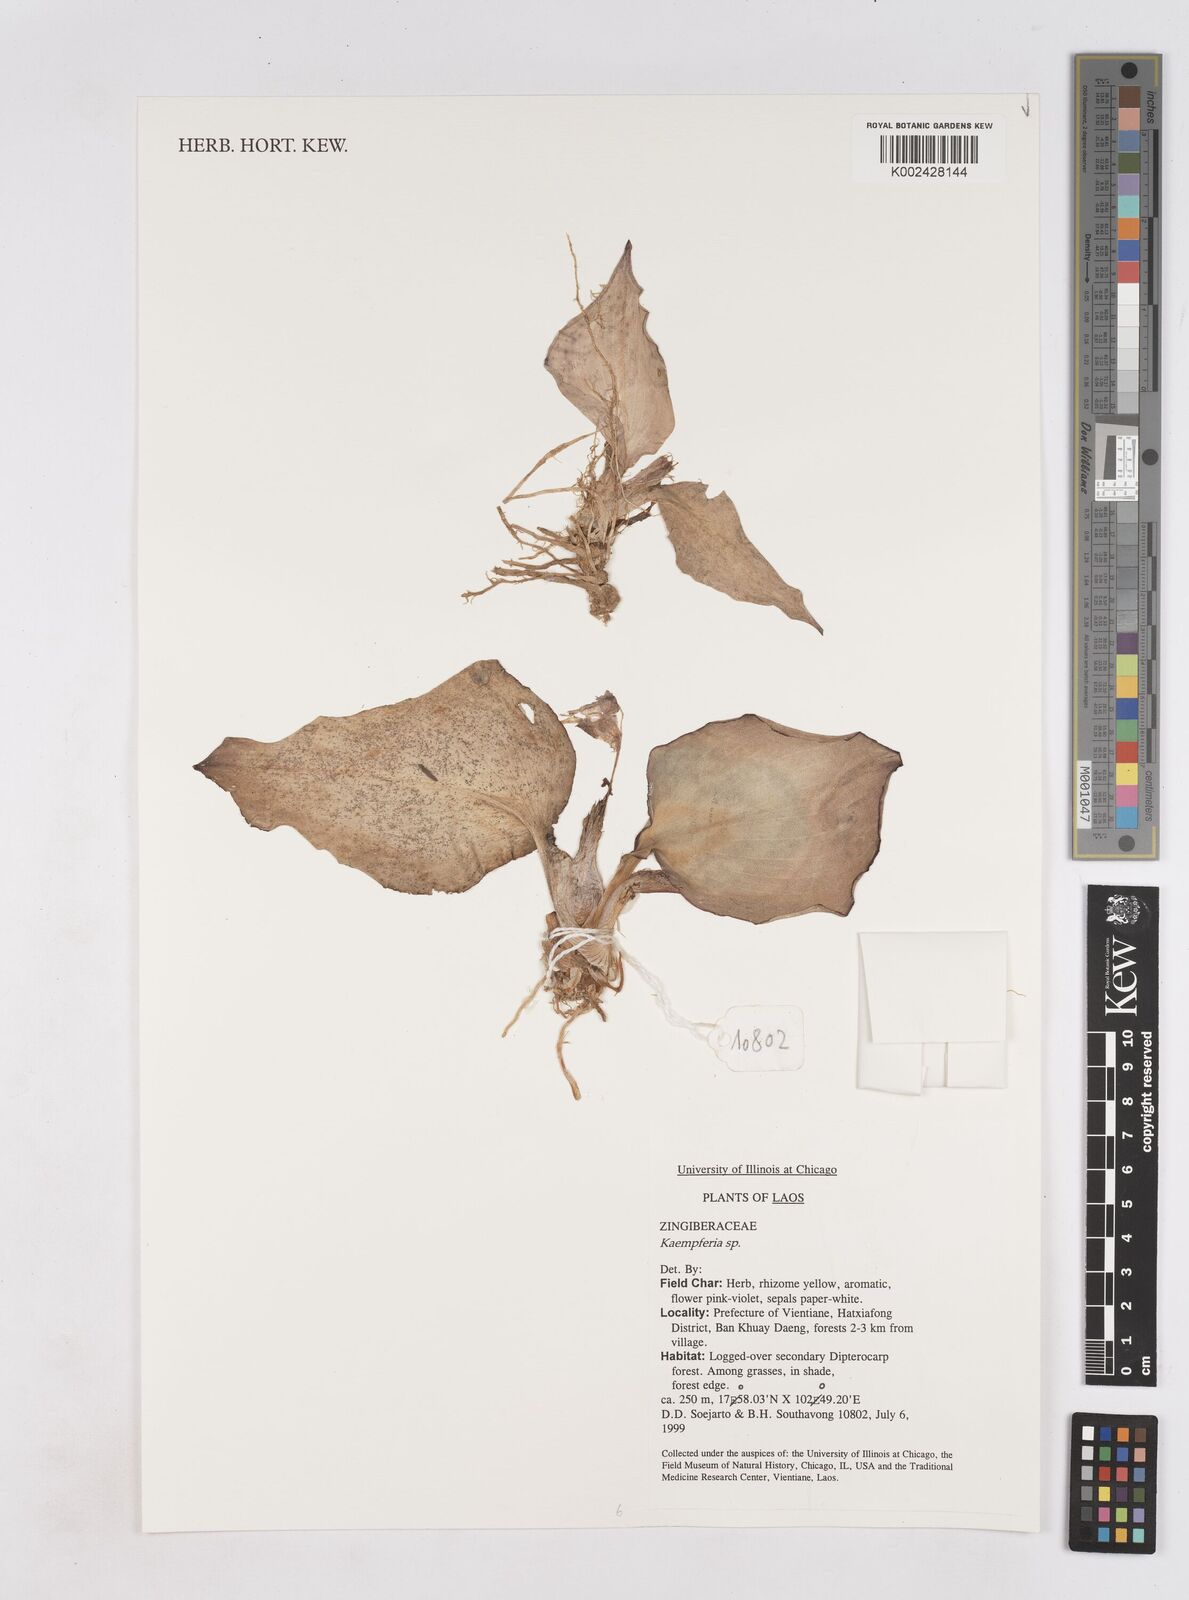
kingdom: Plantae
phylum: Tracheophyta
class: Liliopsida
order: Zingiberales
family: Zingiberaceae
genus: Kaempferia
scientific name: Kaempferia
